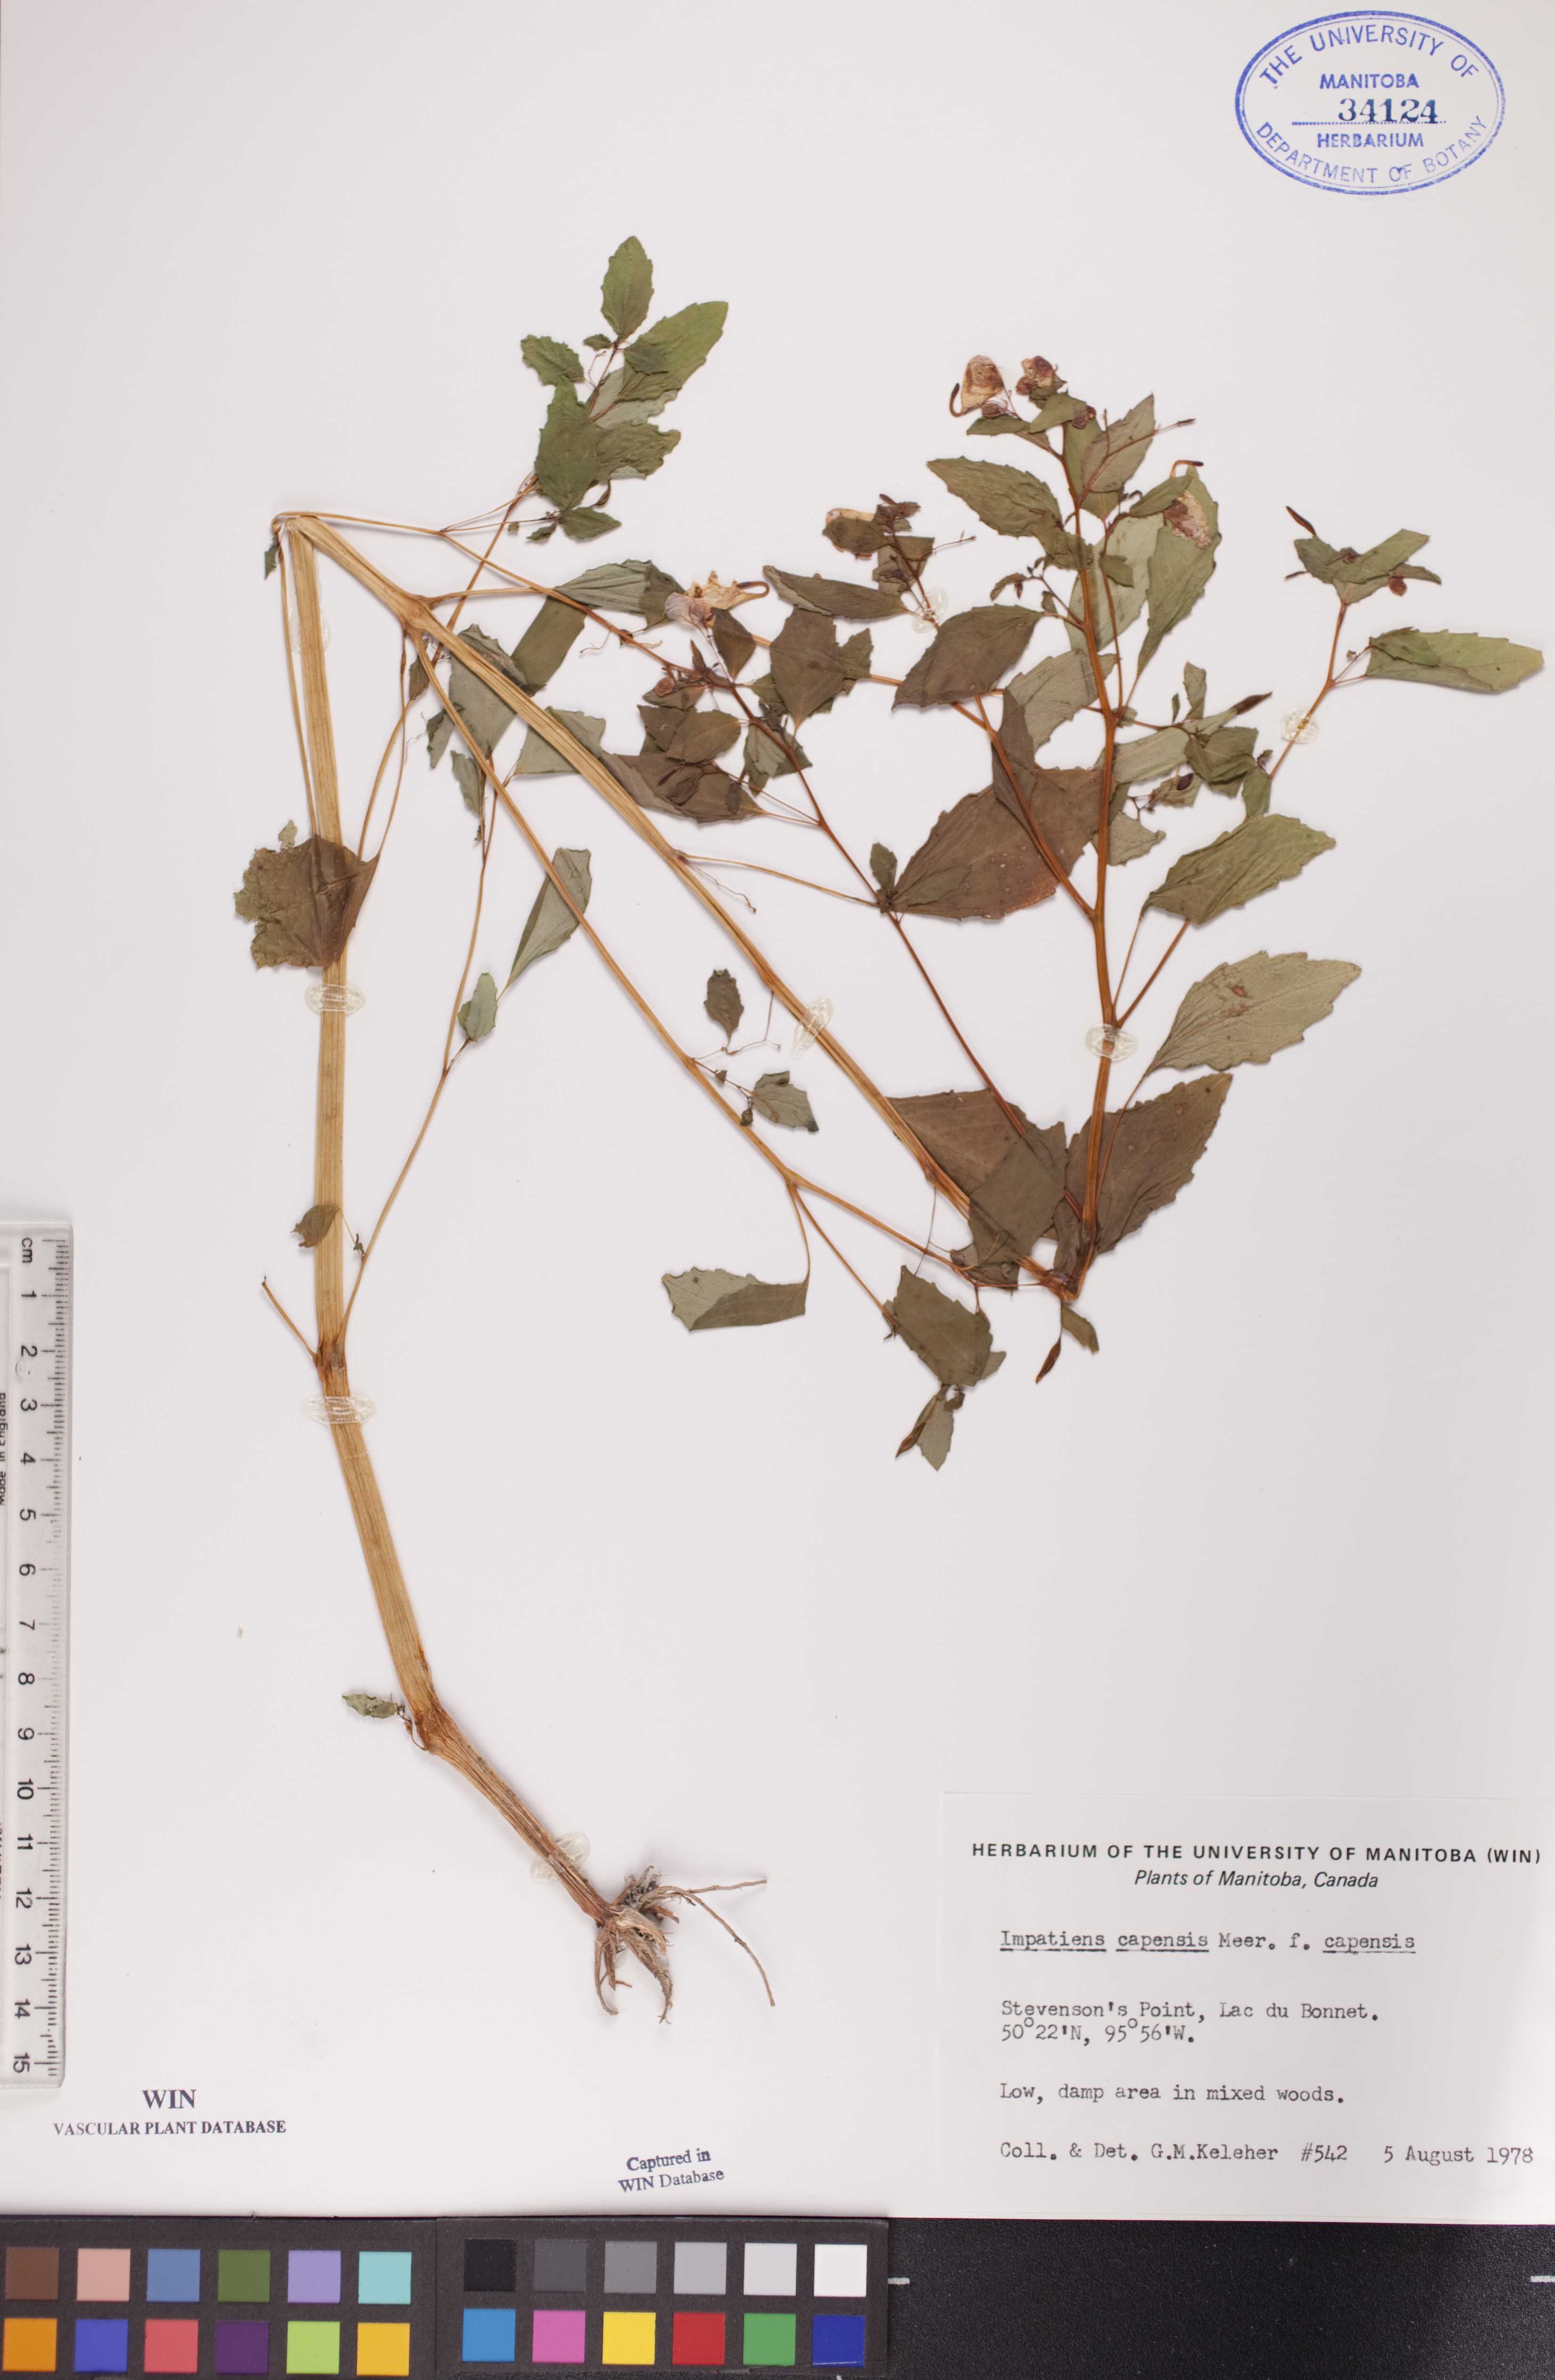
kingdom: Plantae
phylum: Tracheophyta
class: Magnoliopsida
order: Ericales
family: Balsaminaceae
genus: Impatiens
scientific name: Impatiens capensis
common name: Orange balsam
